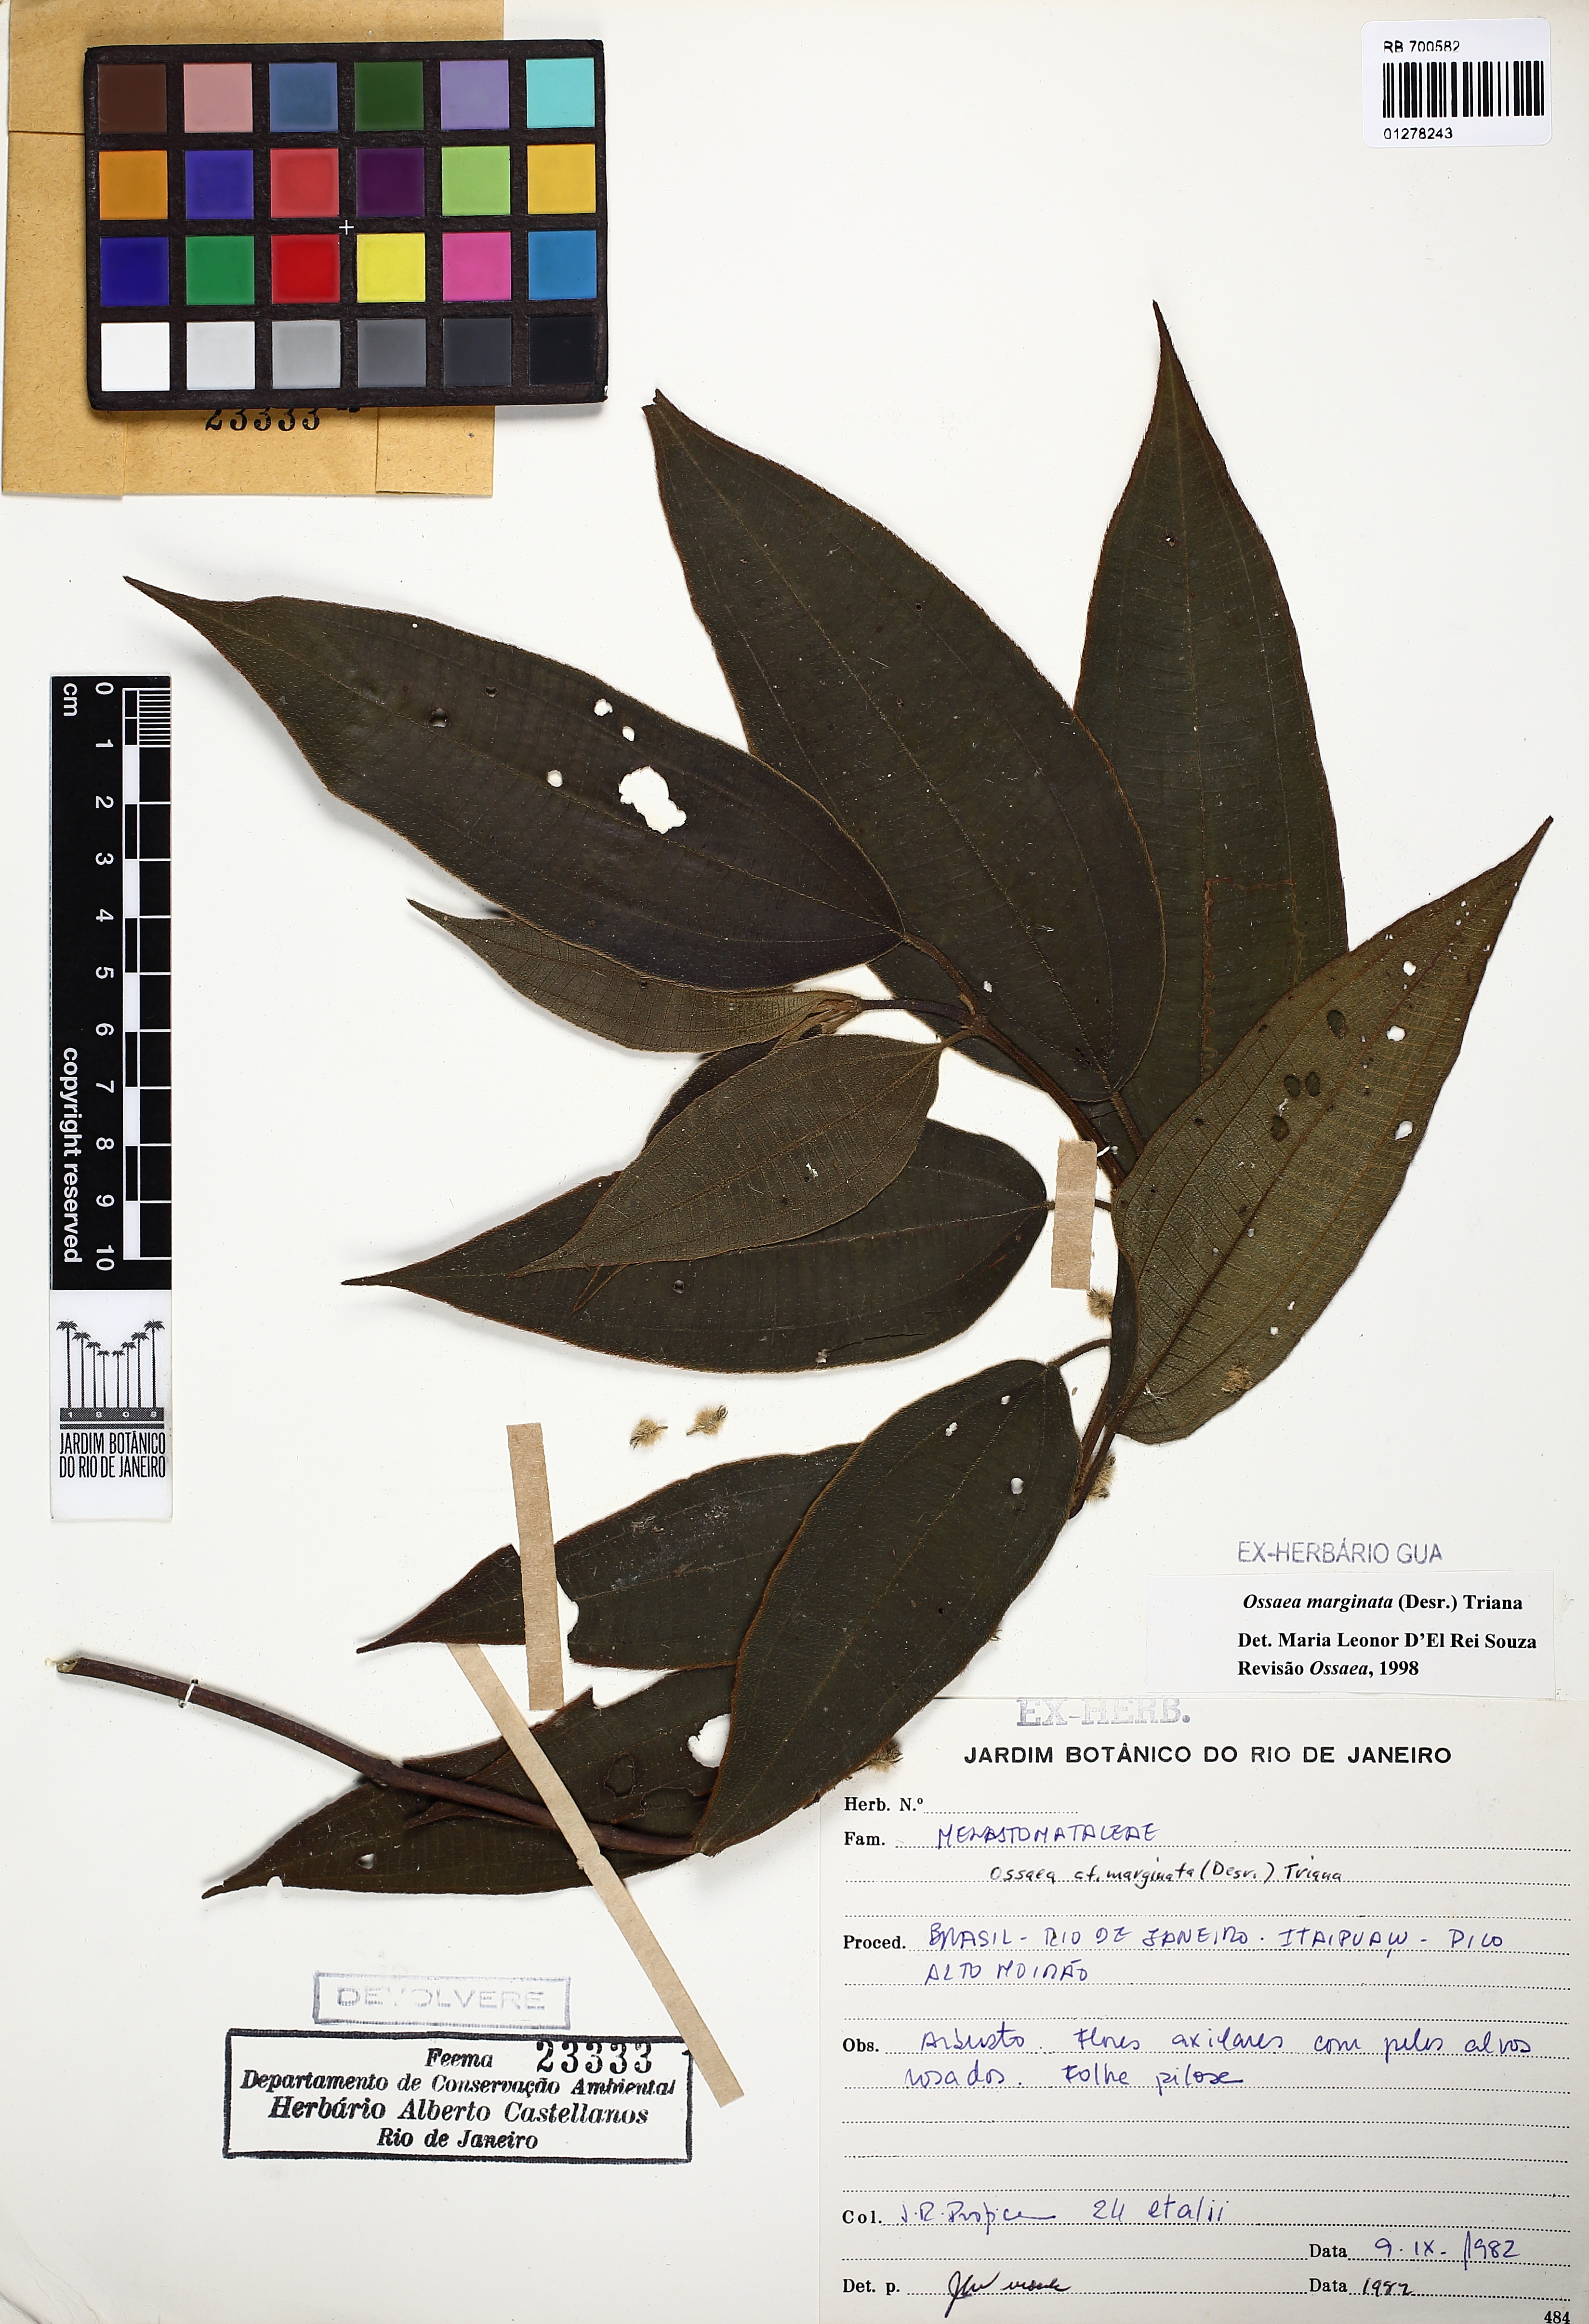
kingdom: Plantae
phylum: Tracheophyta
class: Magnoliopsida
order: Myrtales
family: Melastomataceae
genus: Miconia
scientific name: Miconia leamarginata
